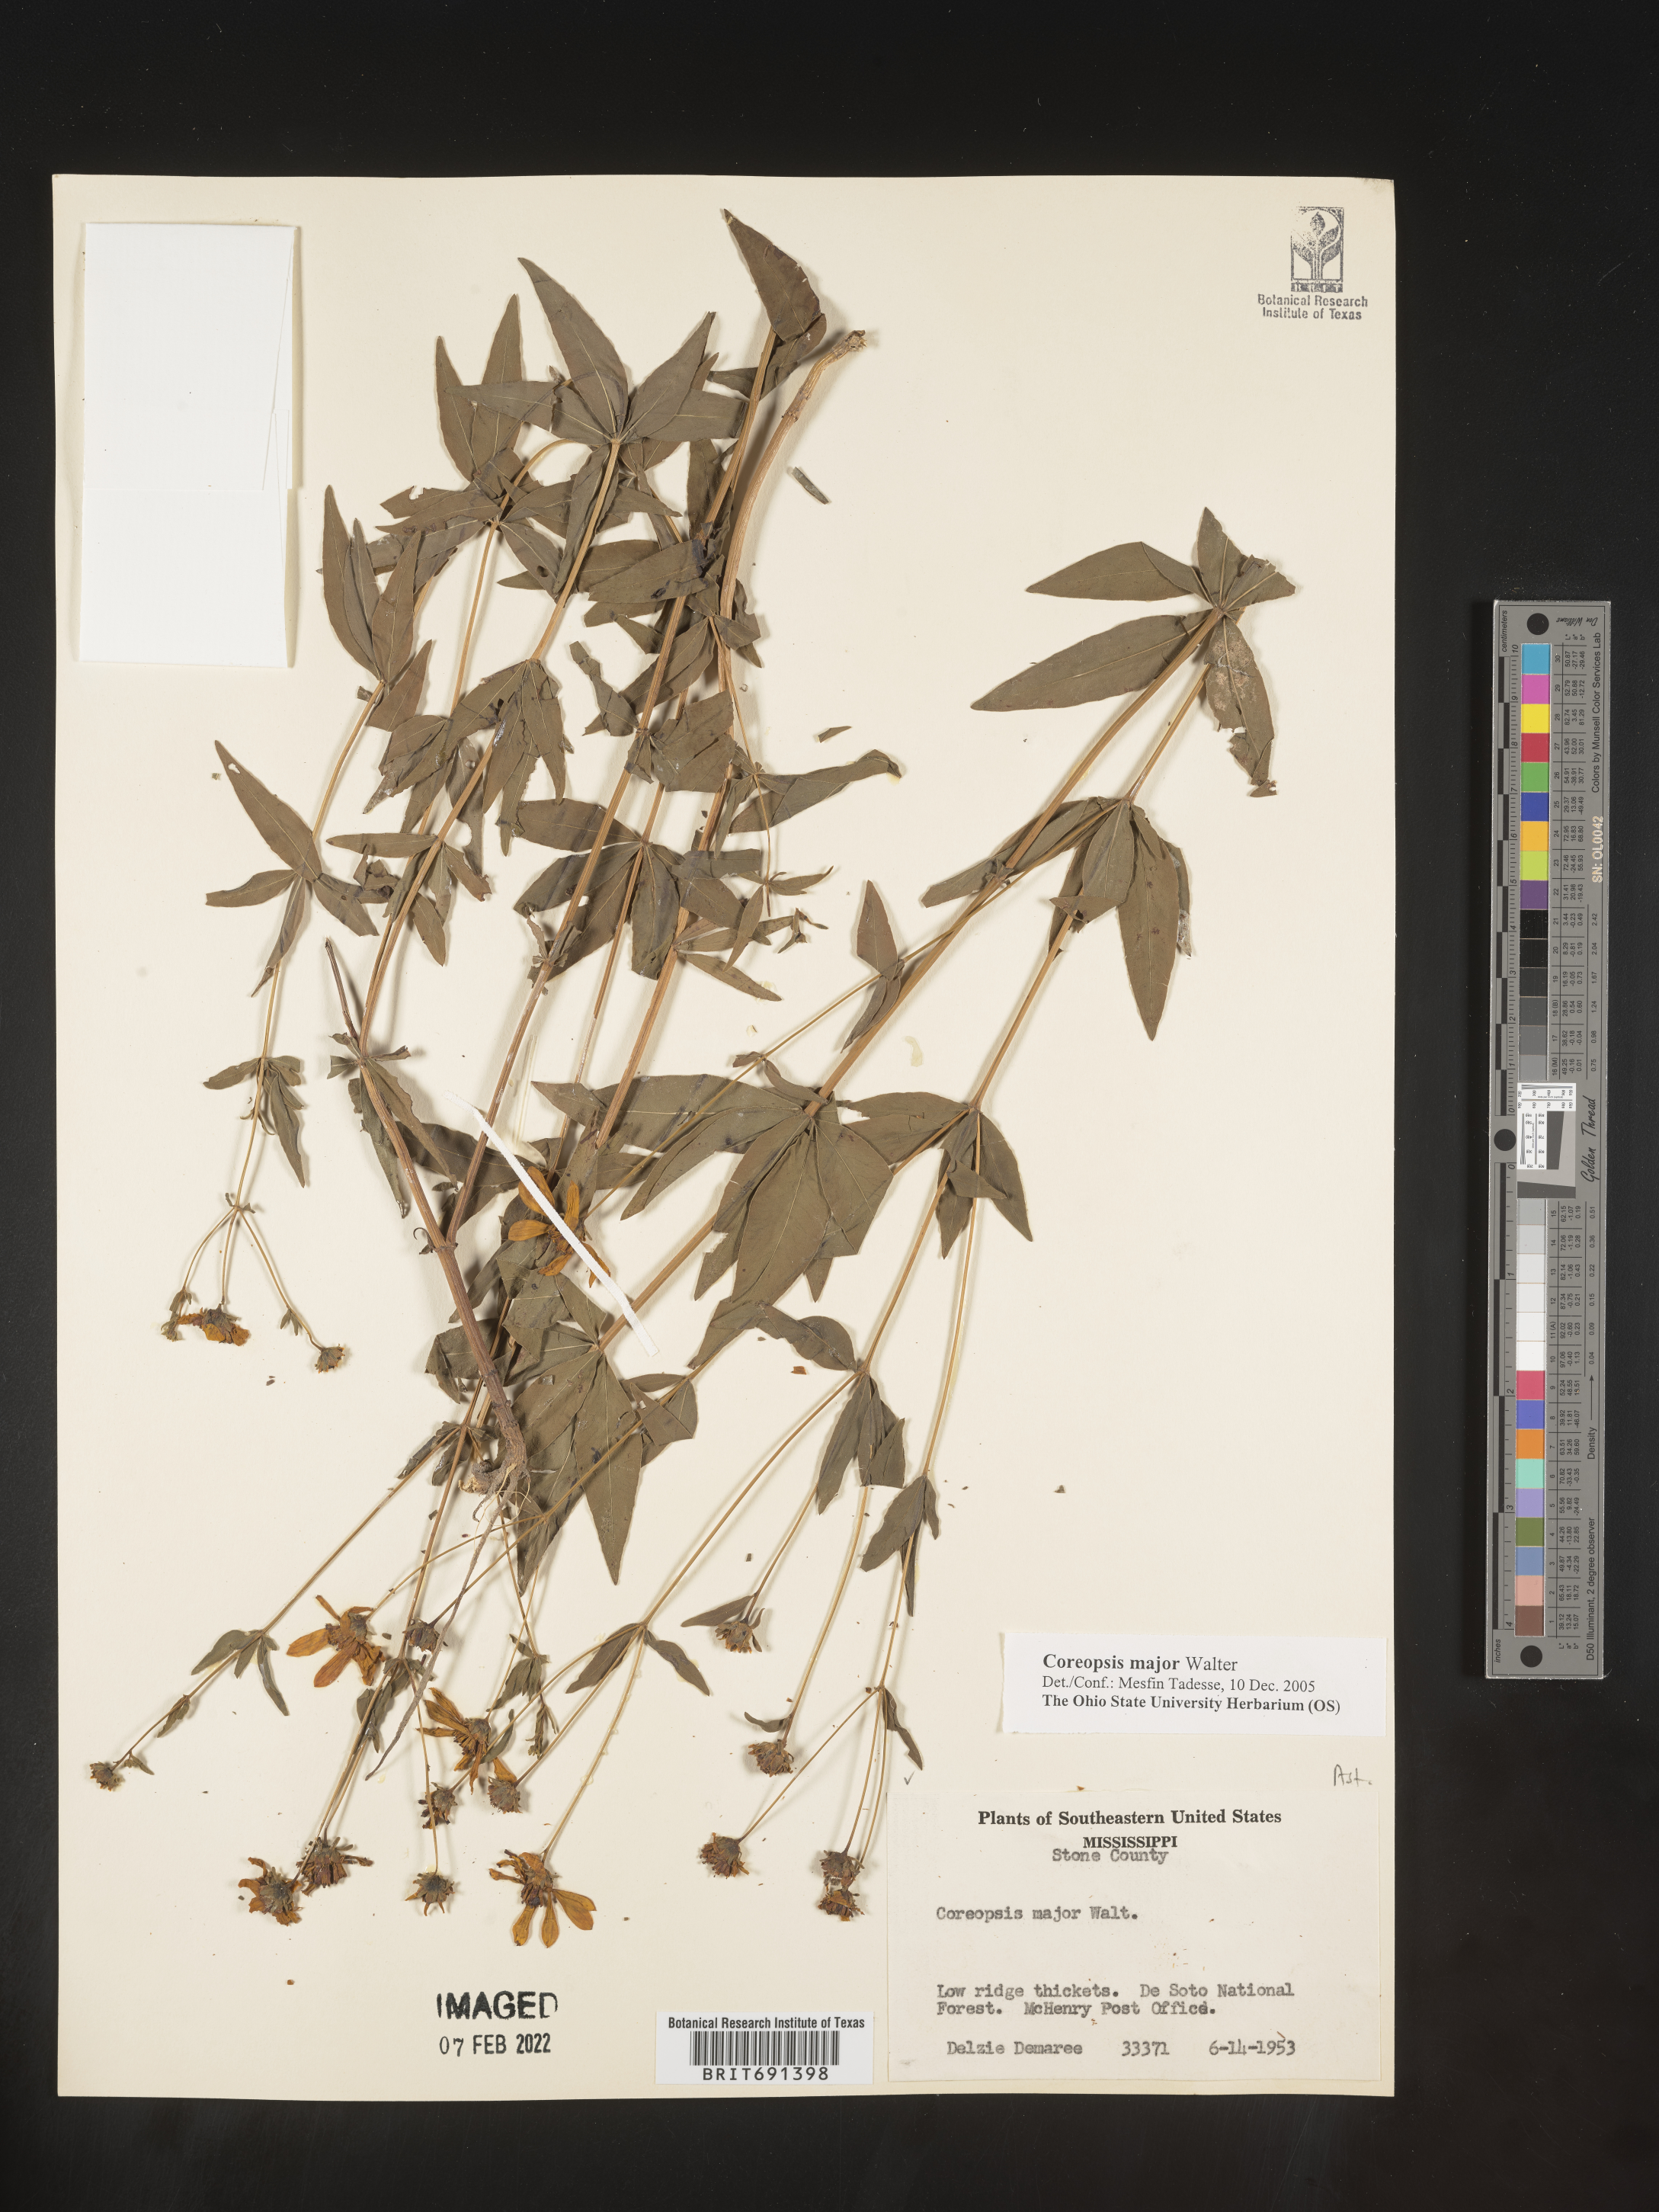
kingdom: Plantae
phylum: Tracheophyta
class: Magnoliopsida
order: Asterales
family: Asteraceae
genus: Coreopsis
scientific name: Coreopsis major
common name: Forest tickseed
